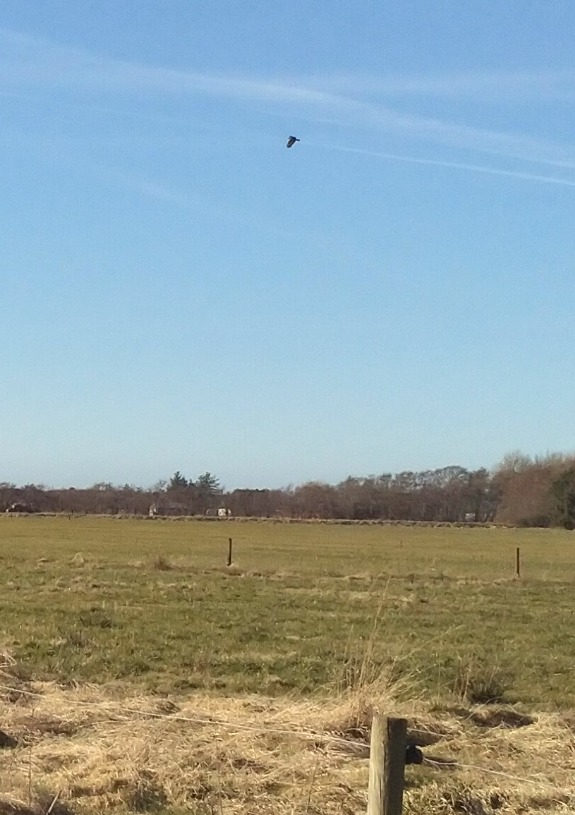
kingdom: Animalia
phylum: Chordata
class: Aves
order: Accipitriformes
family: Accipitridae
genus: Buteo
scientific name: Buteo buteo
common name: Musvåge
